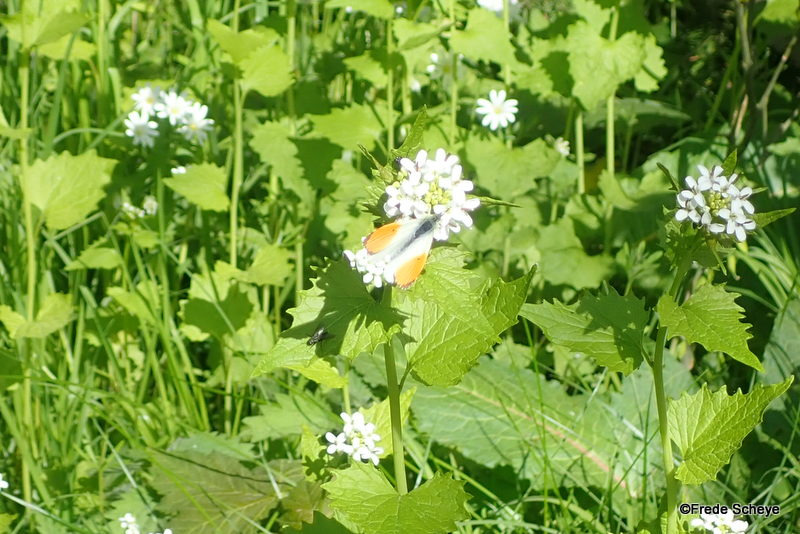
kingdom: Animalia
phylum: Arthropoda
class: Insecta
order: Lepidoptera
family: Pieridae
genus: Anthocharis
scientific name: Anthocharis cardamines
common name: Aurora
